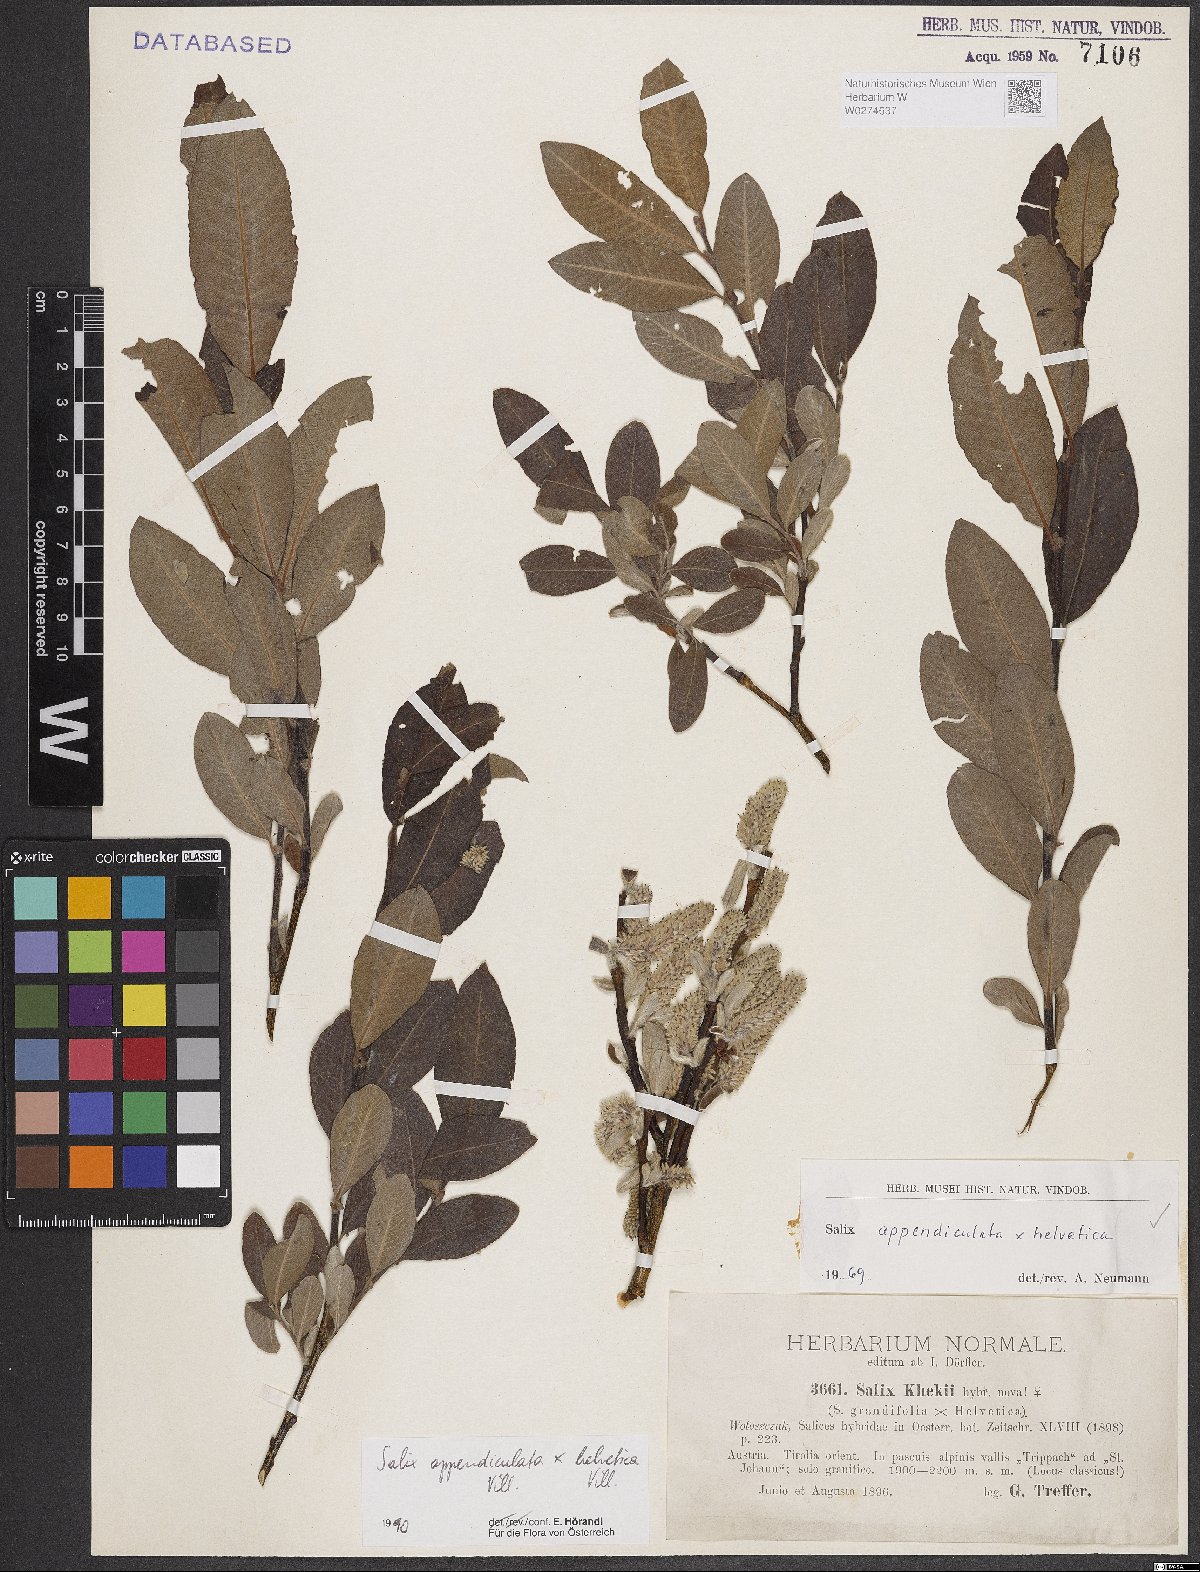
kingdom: Plantae
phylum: Tracheophyta
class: Magnoliopsida
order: Malpighiales
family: Salicaceae
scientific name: Salicaceae
